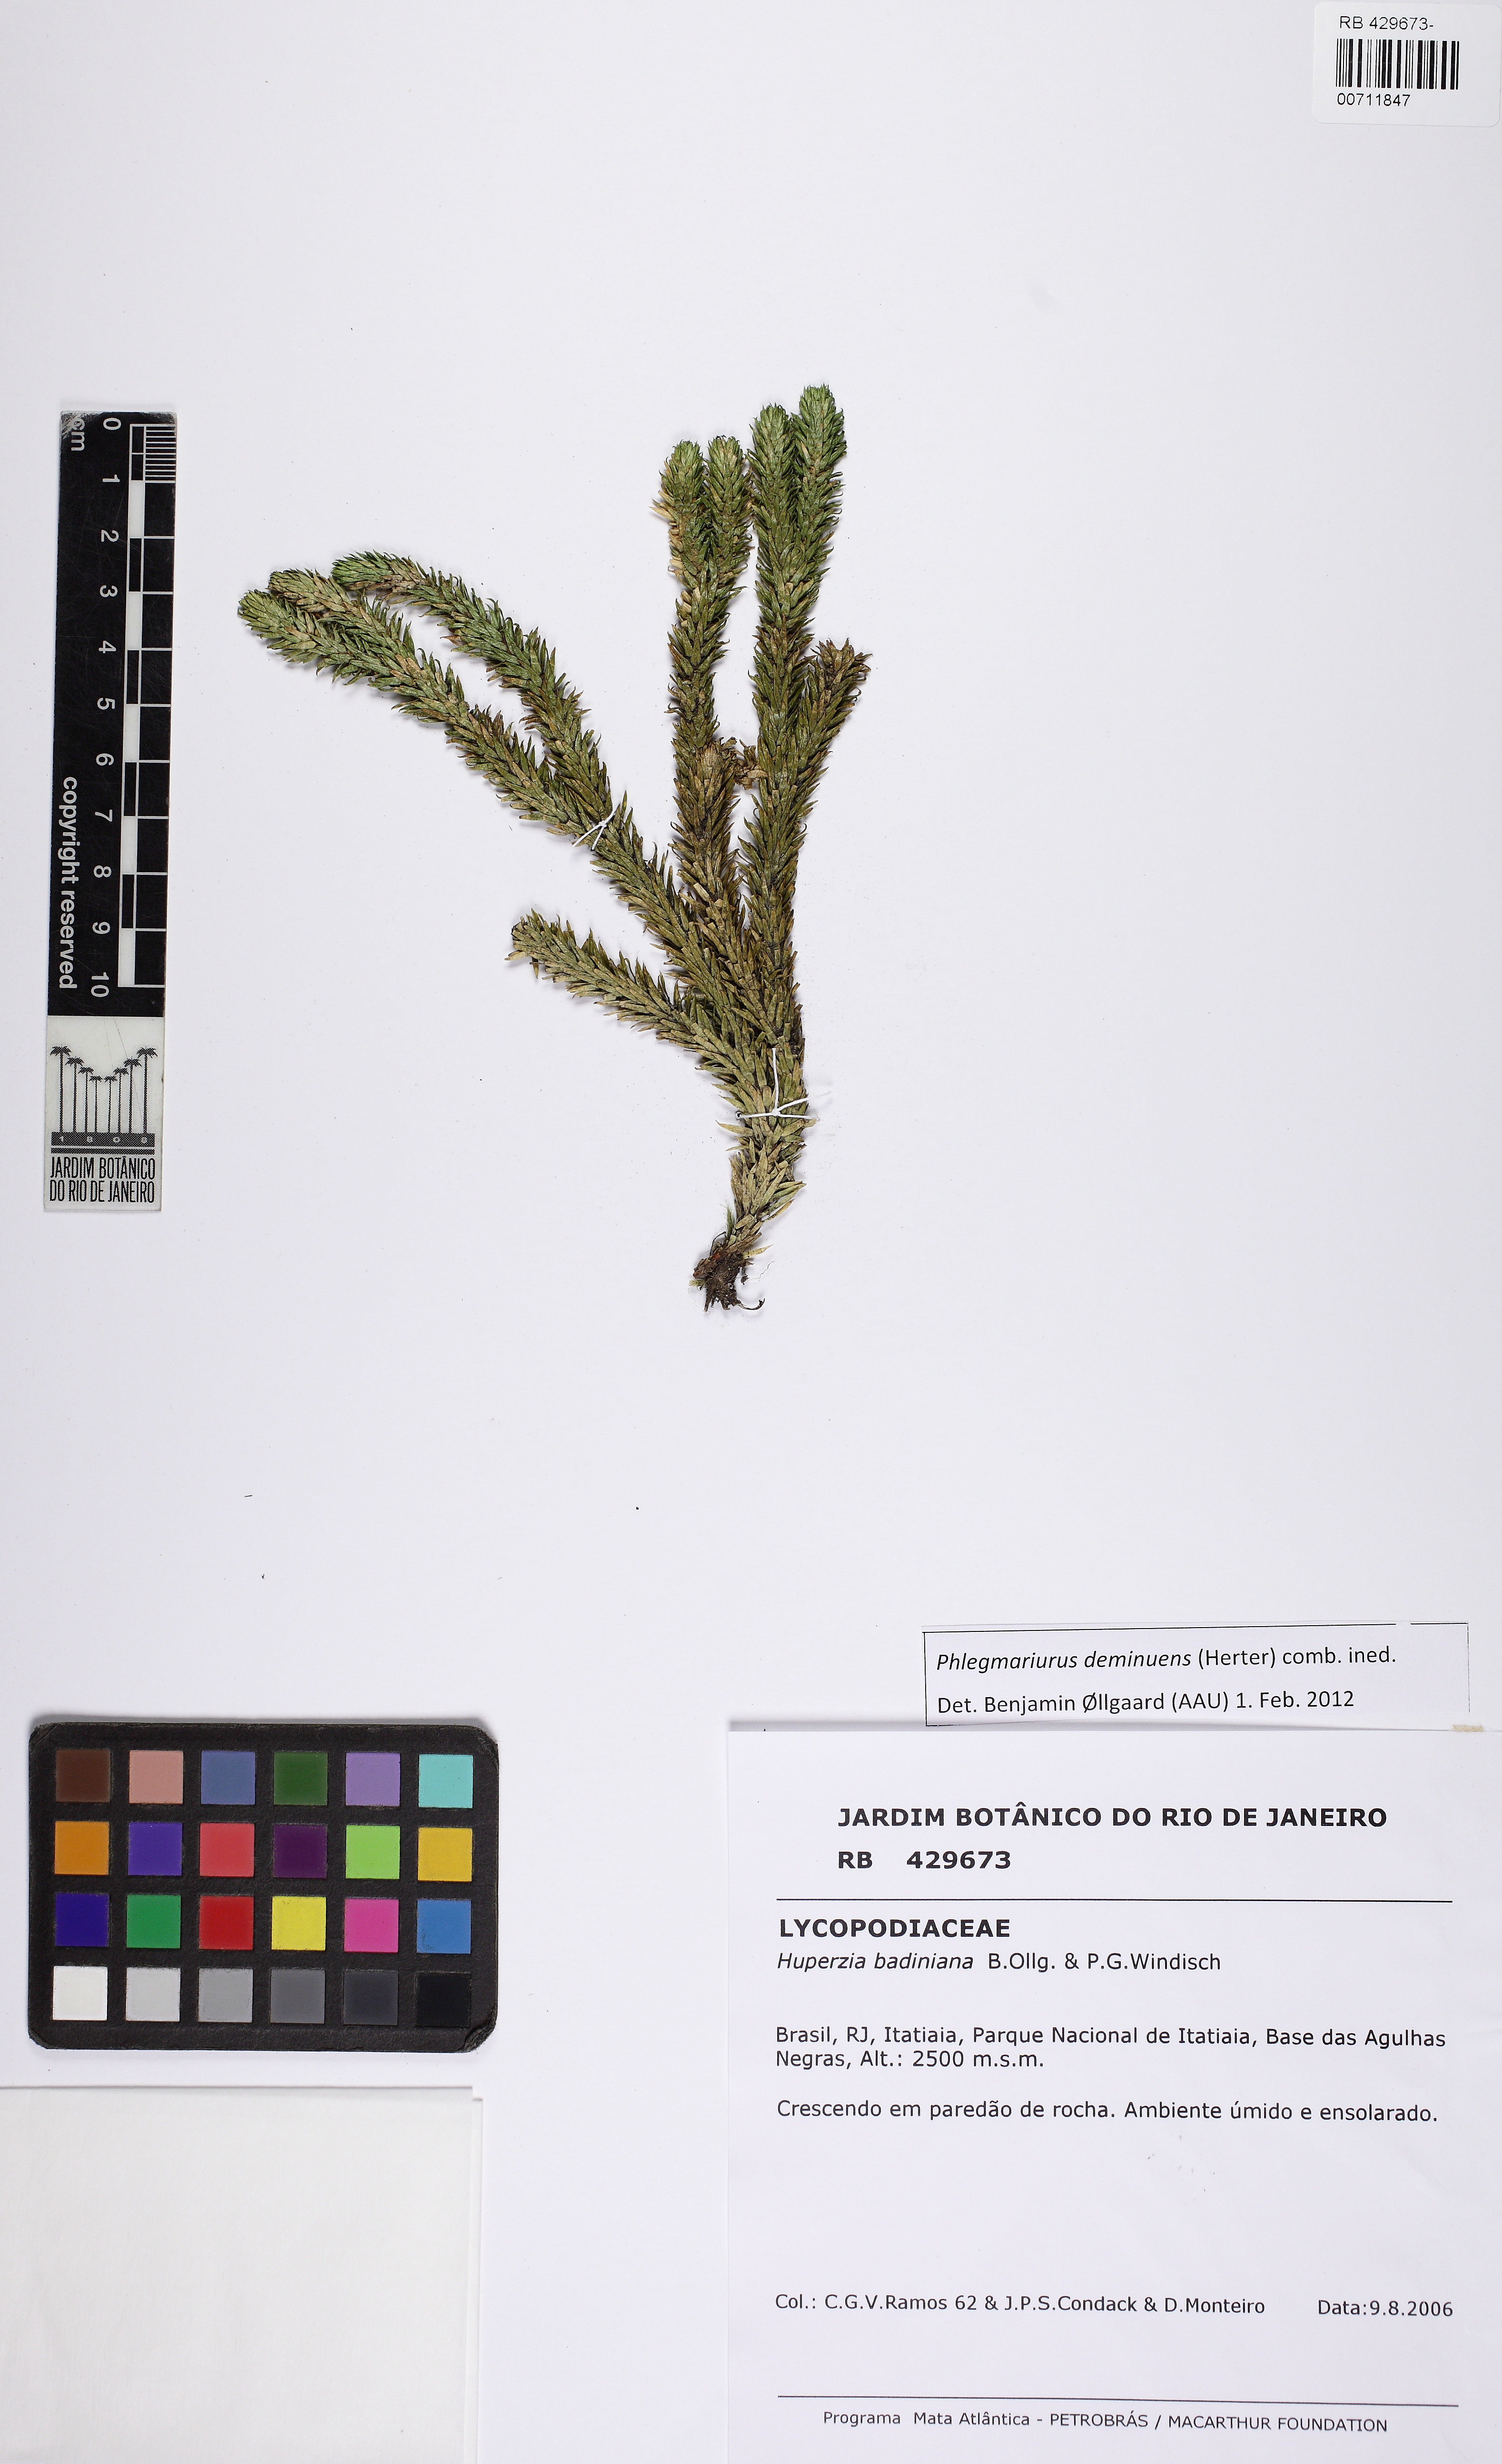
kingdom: Plantae
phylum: Tracheophyta
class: Lycopodiopsida
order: Lycopodiales
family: Lycopodiaceae
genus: Phlegmariurus
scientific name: Phlegmariurus deminuens
